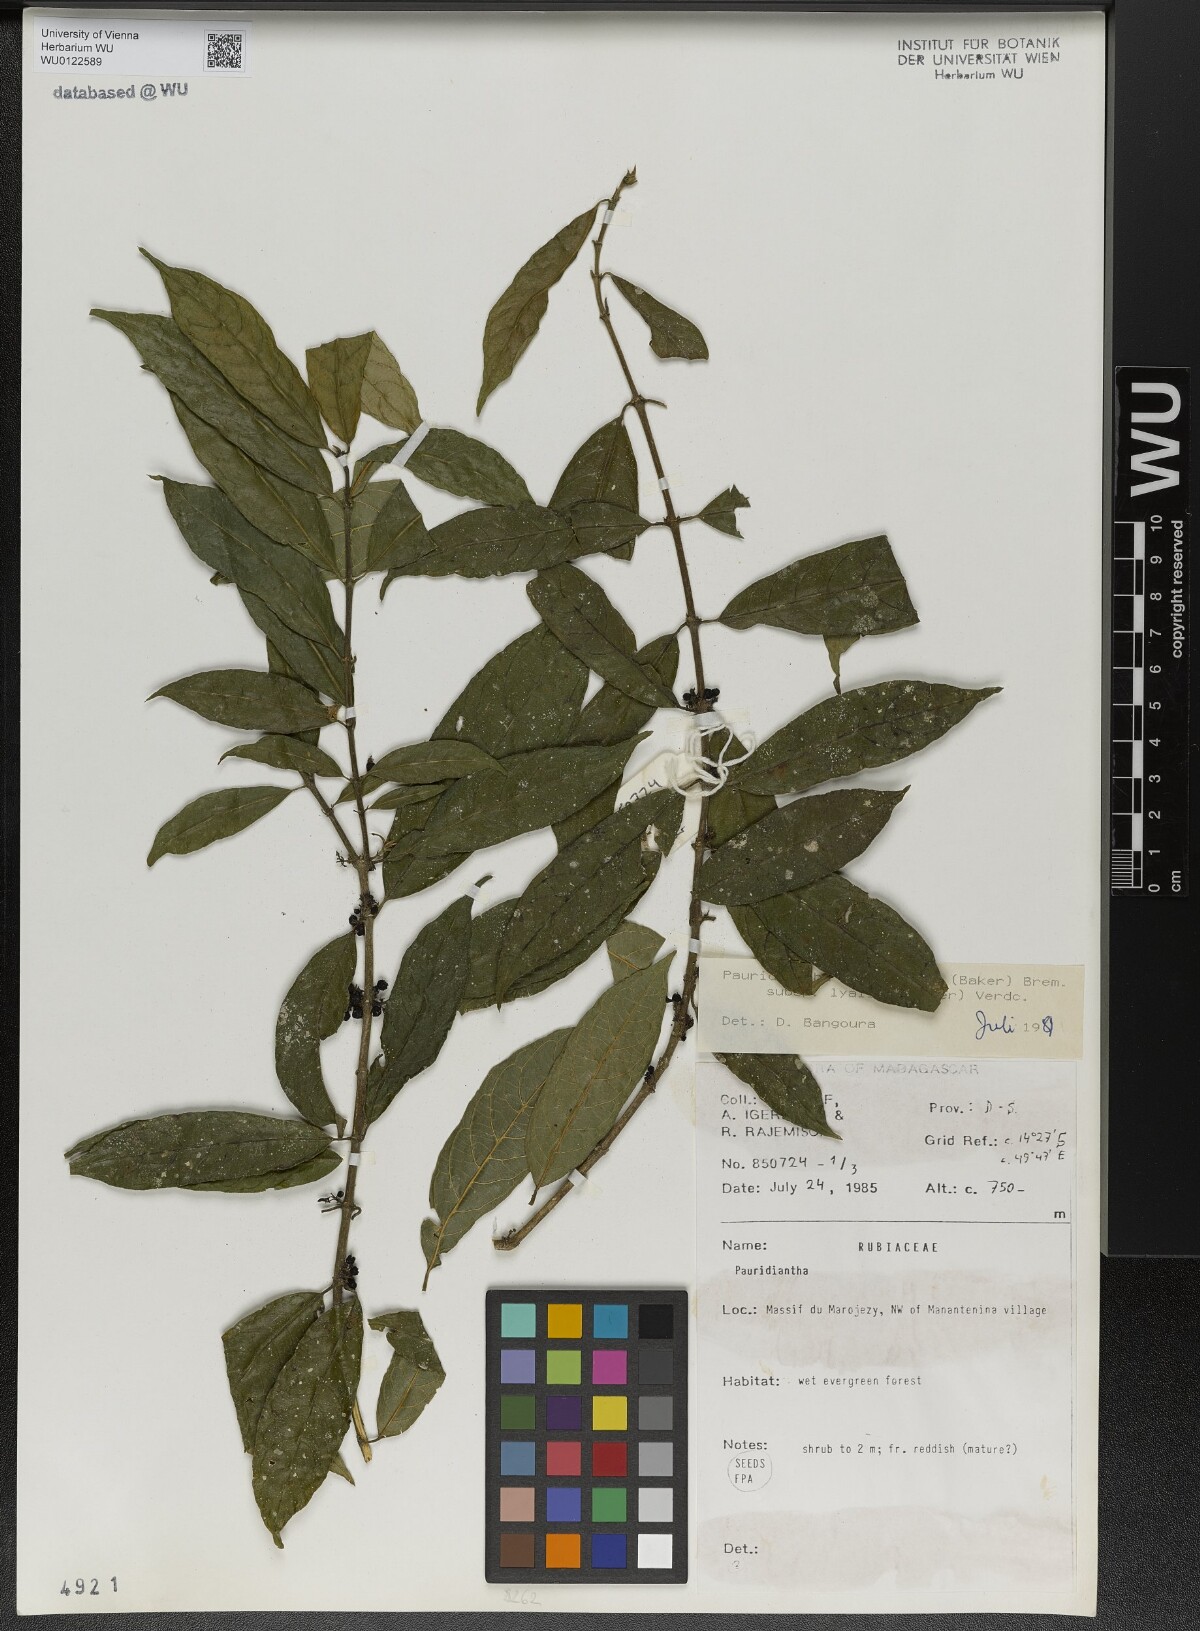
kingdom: Plantae
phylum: Tracheophyta
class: Magnoliopsida
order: Gentianales
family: Rubiaceae
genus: Pauridiantha
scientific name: Pauridiantha paucinervis
